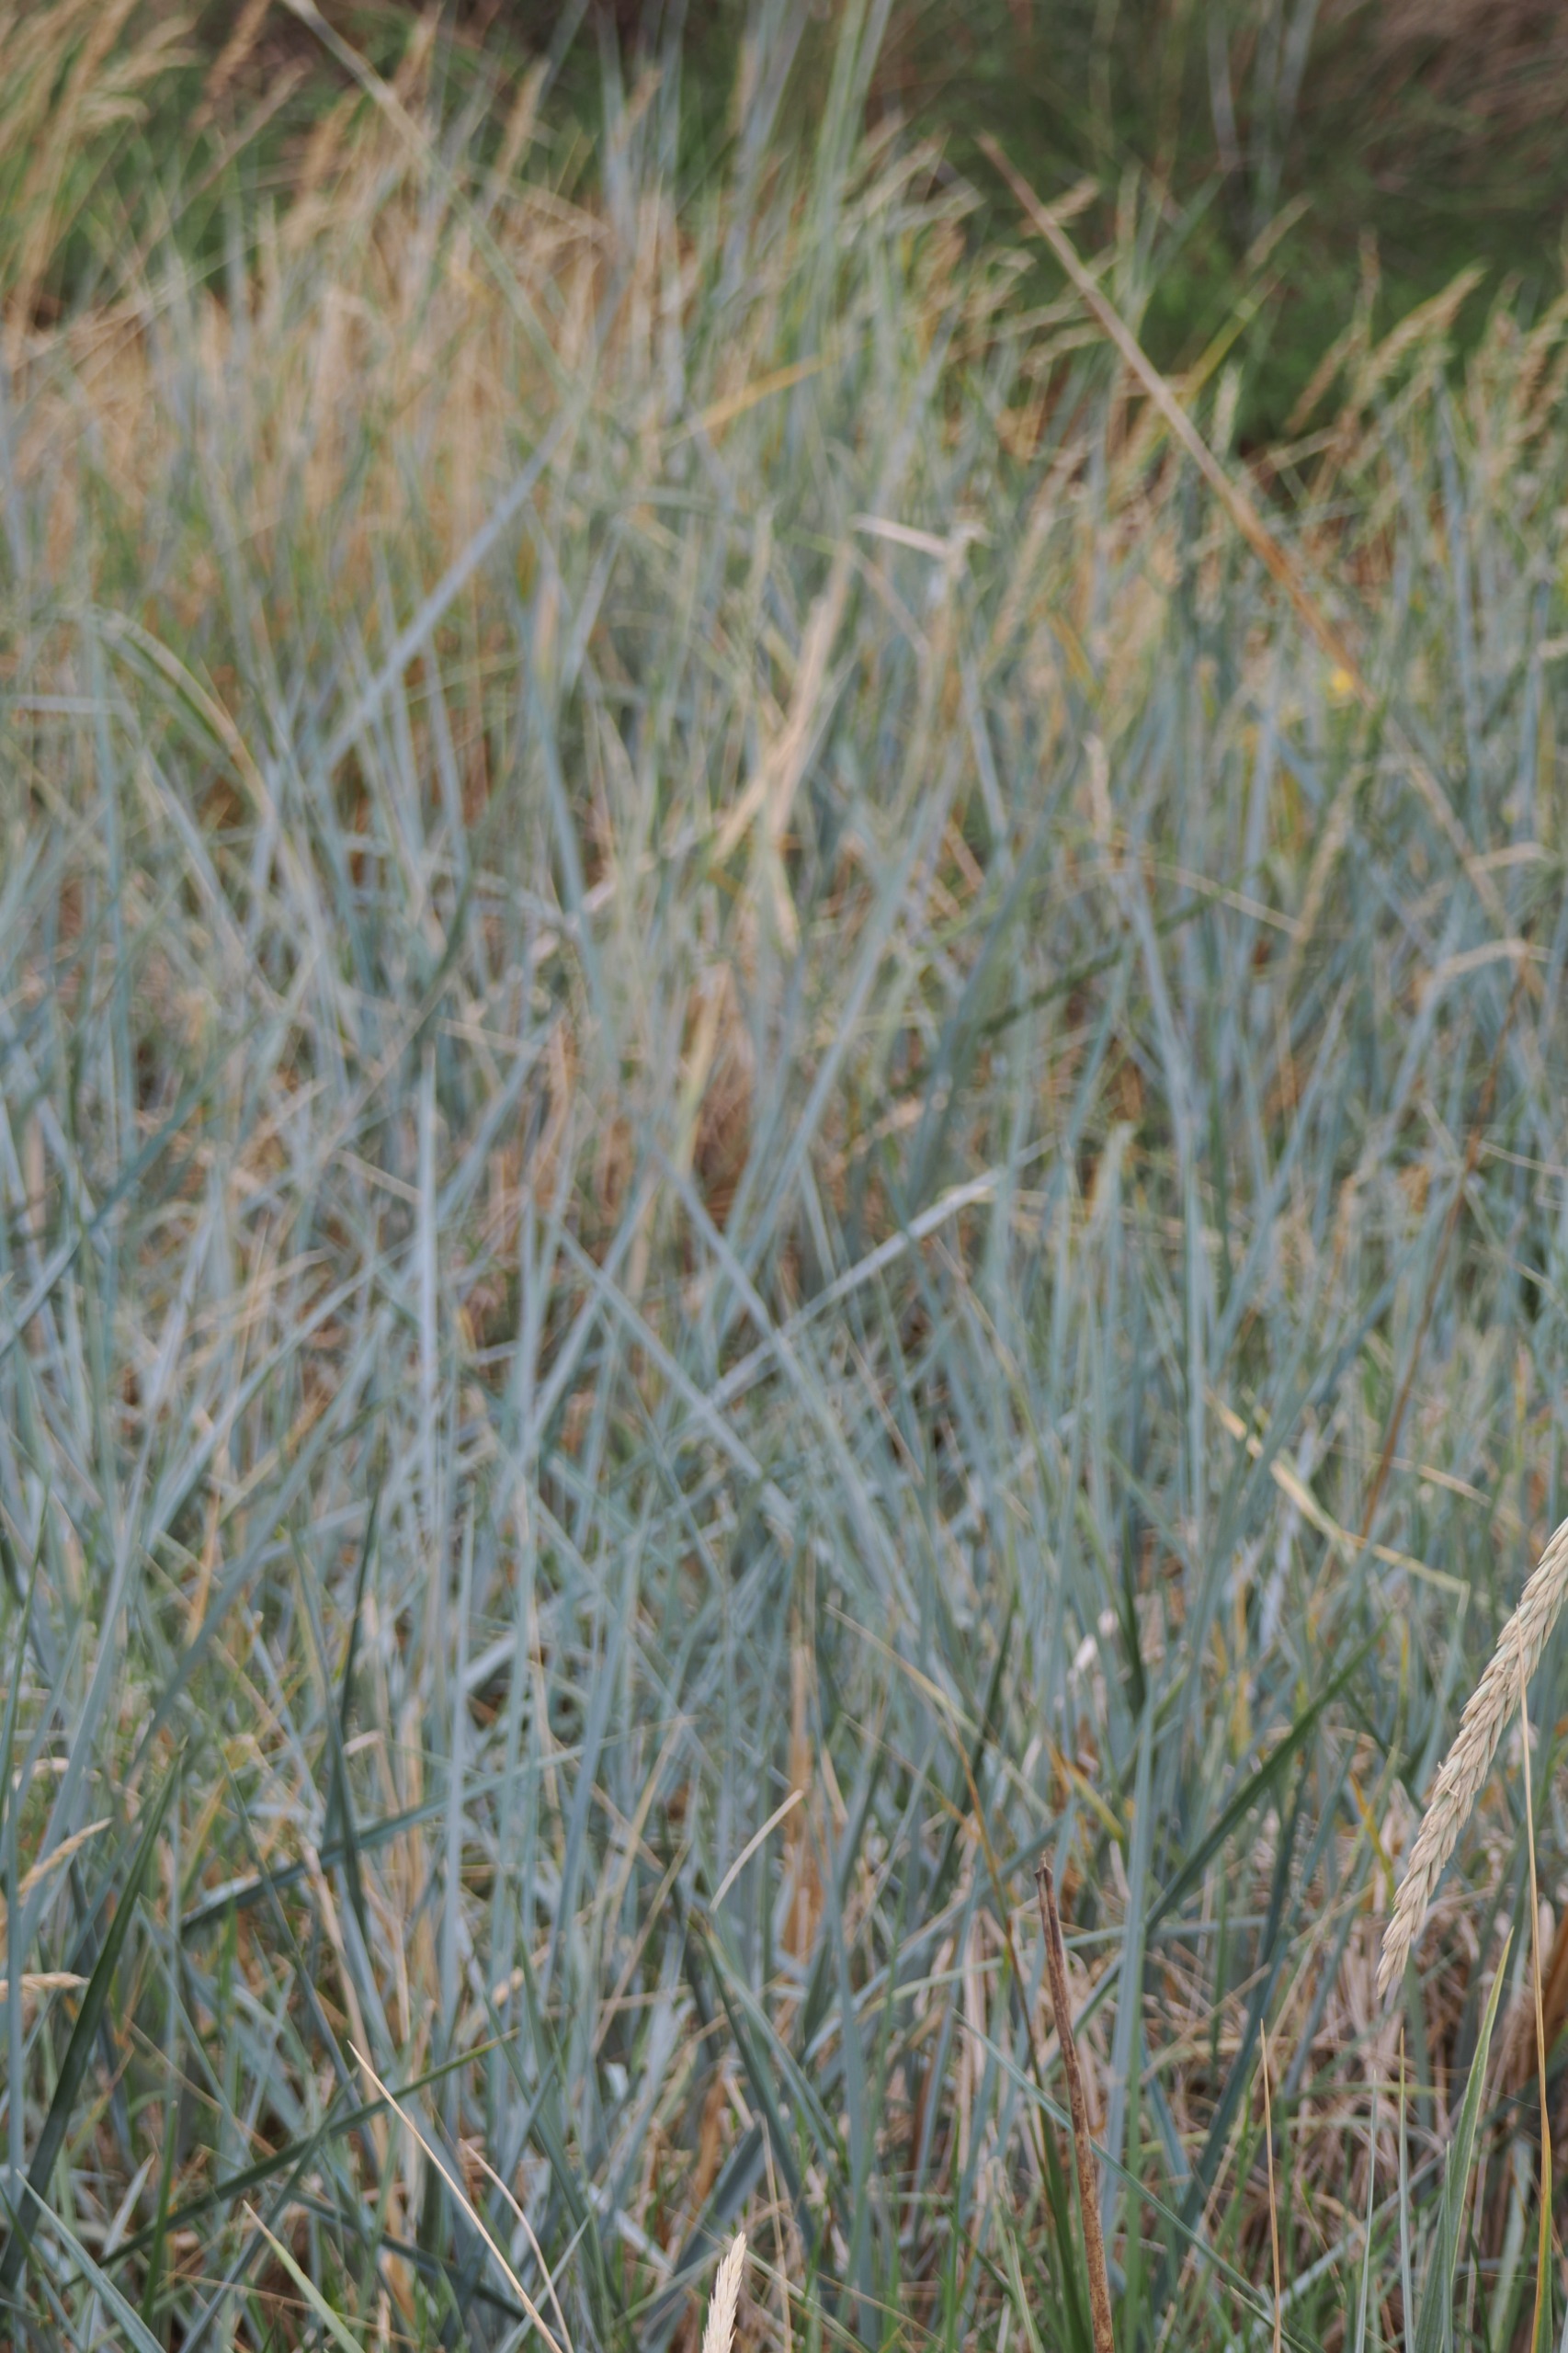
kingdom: Plantae
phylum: Tracheophyta
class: Liliopsida
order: Poales
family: Poaceae
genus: Leymus
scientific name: Leymus arenarius
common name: Marehalm
